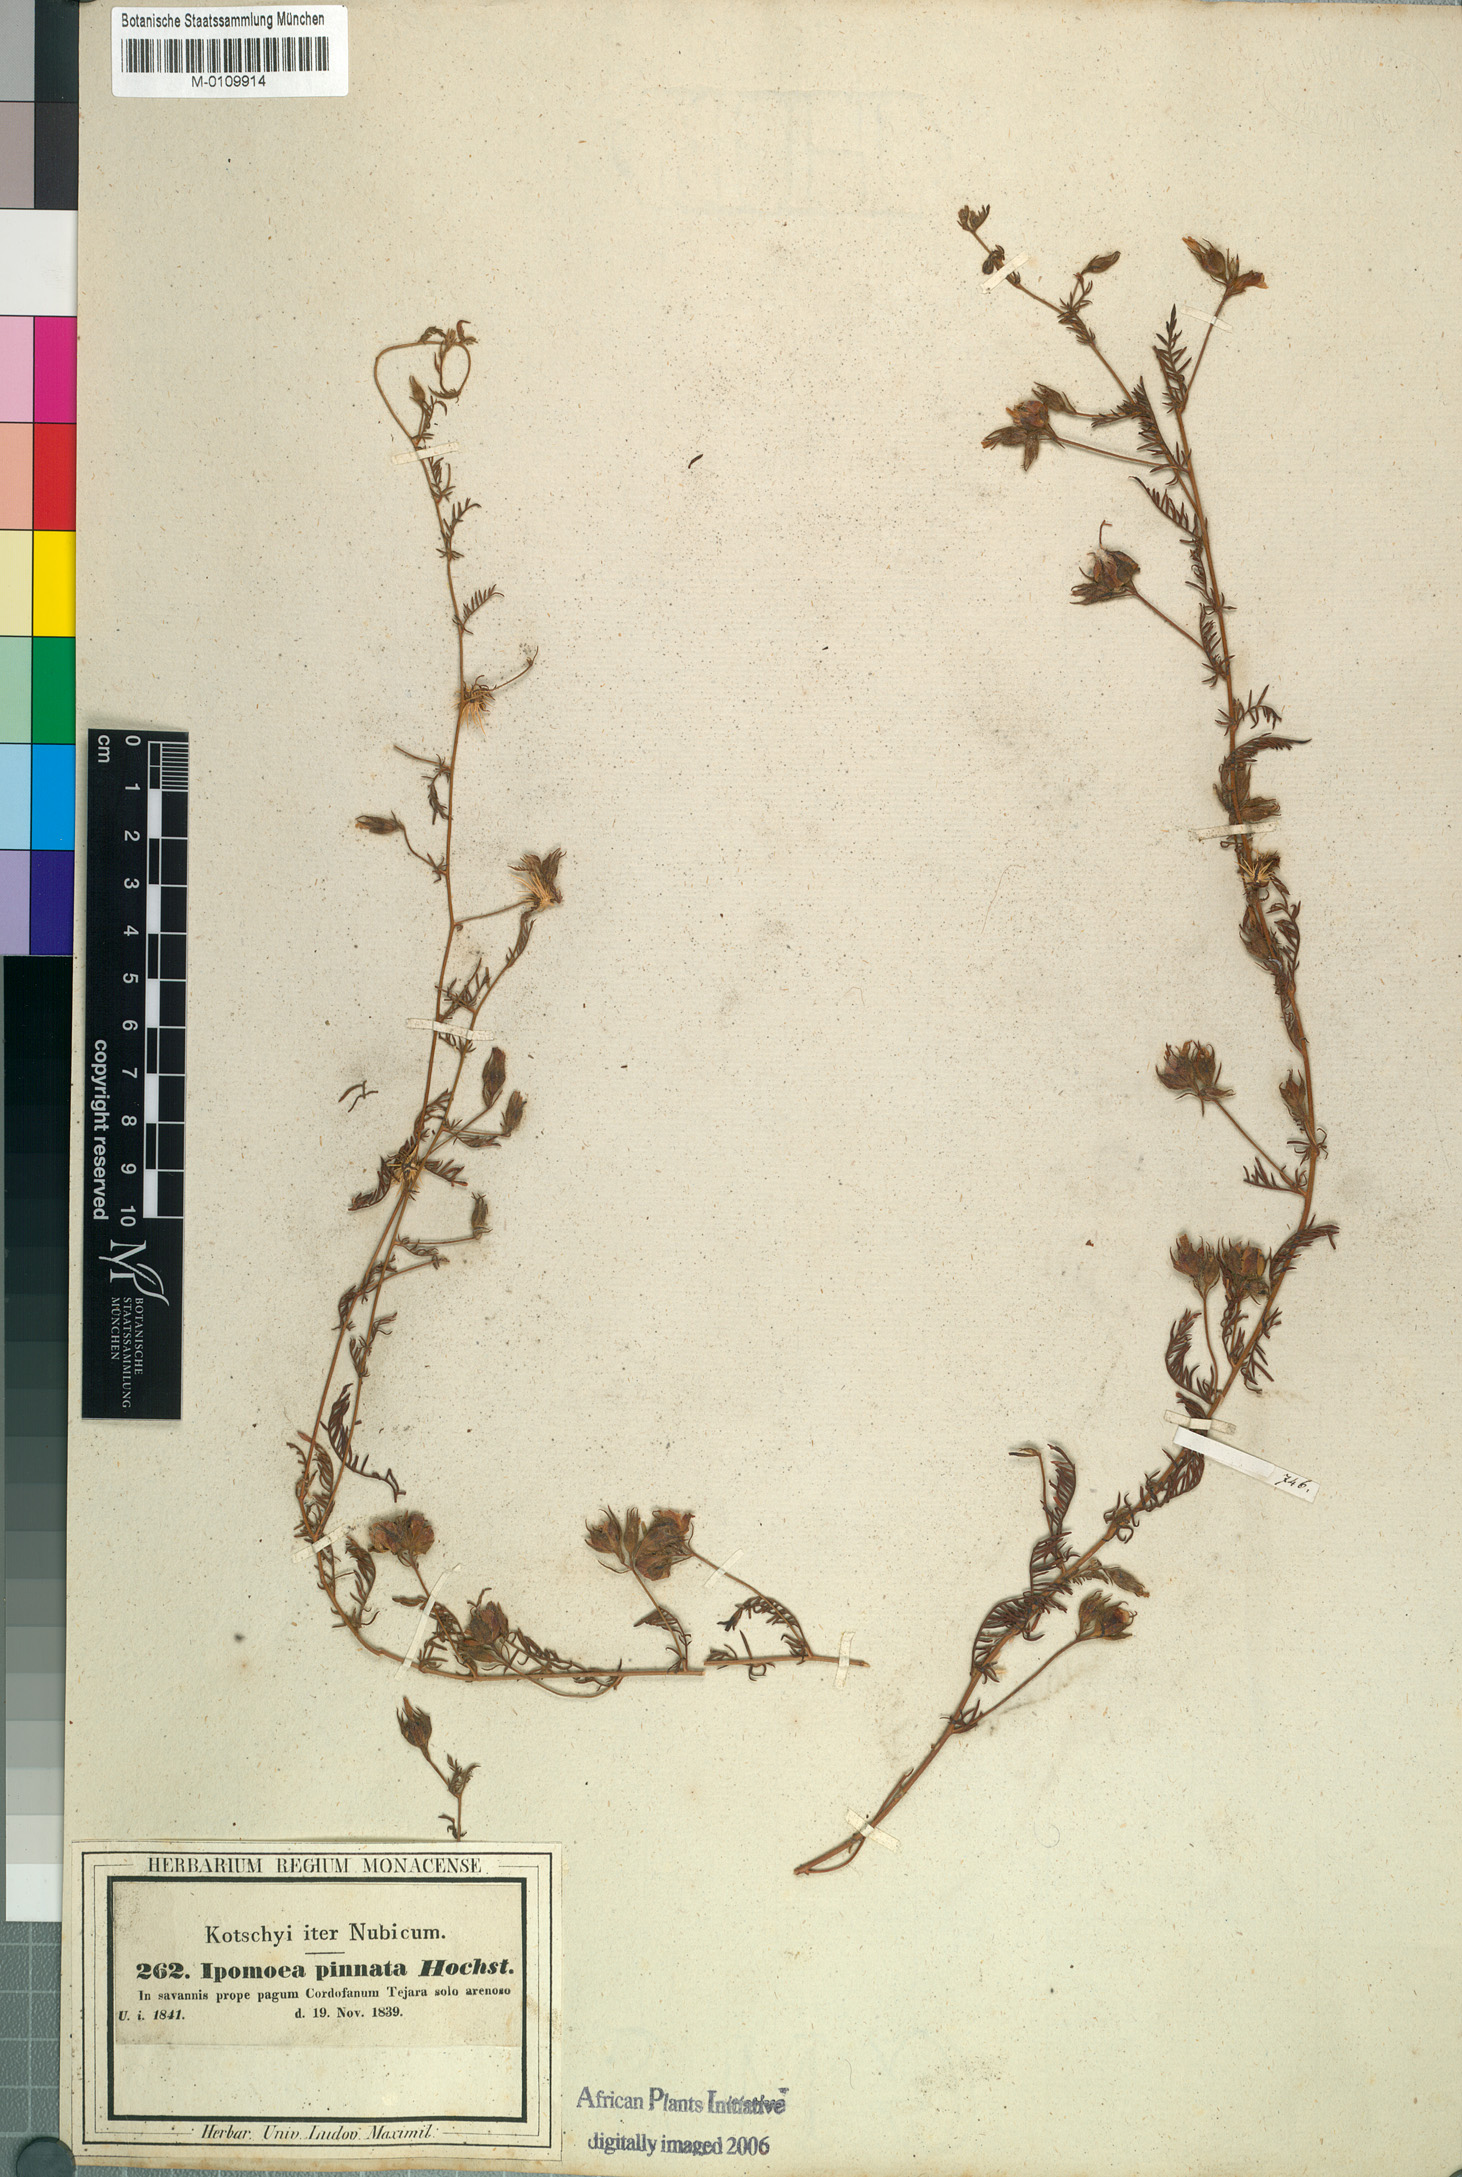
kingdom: Plantae
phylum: Tracheophyta
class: Magnoliopsida
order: Solanales
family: Convolvulaceae
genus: Xenostegia
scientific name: Xenostegia pinnata
